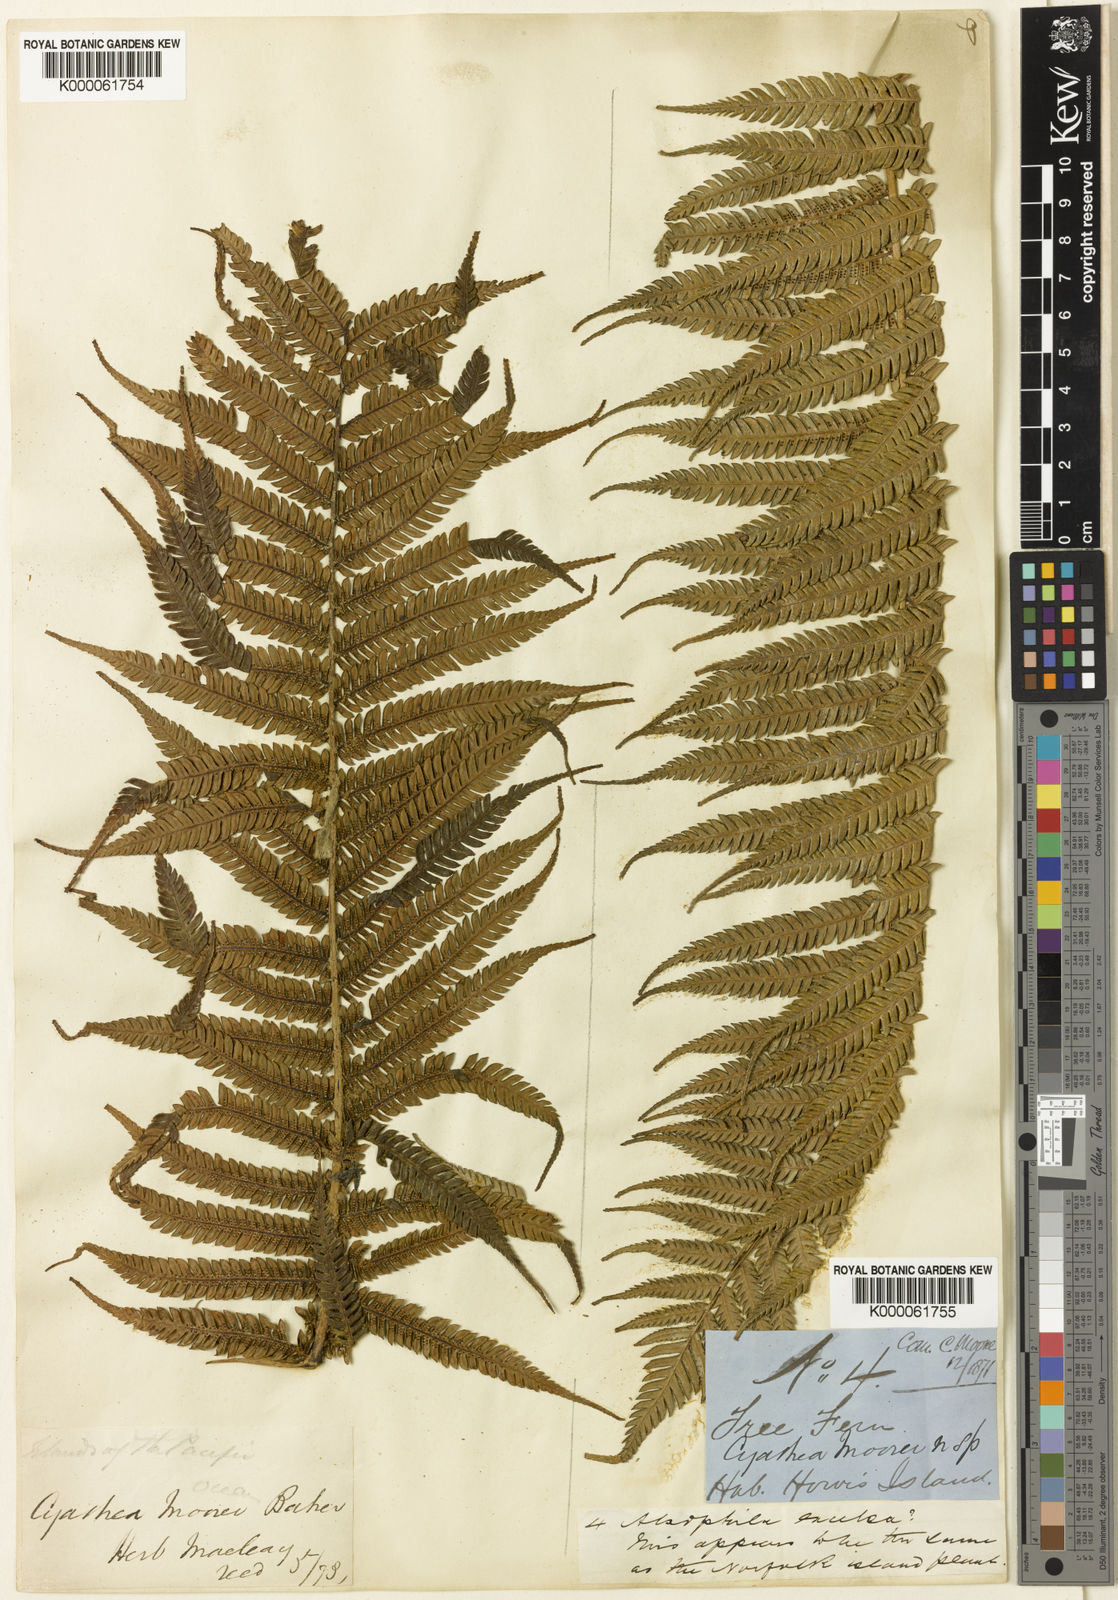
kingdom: Plantae
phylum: Tracheophyta
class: Polypodiopsida
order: Cyatheales
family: Cyatheaceae
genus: Alsophila
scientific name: Alsophila ferdinandii
